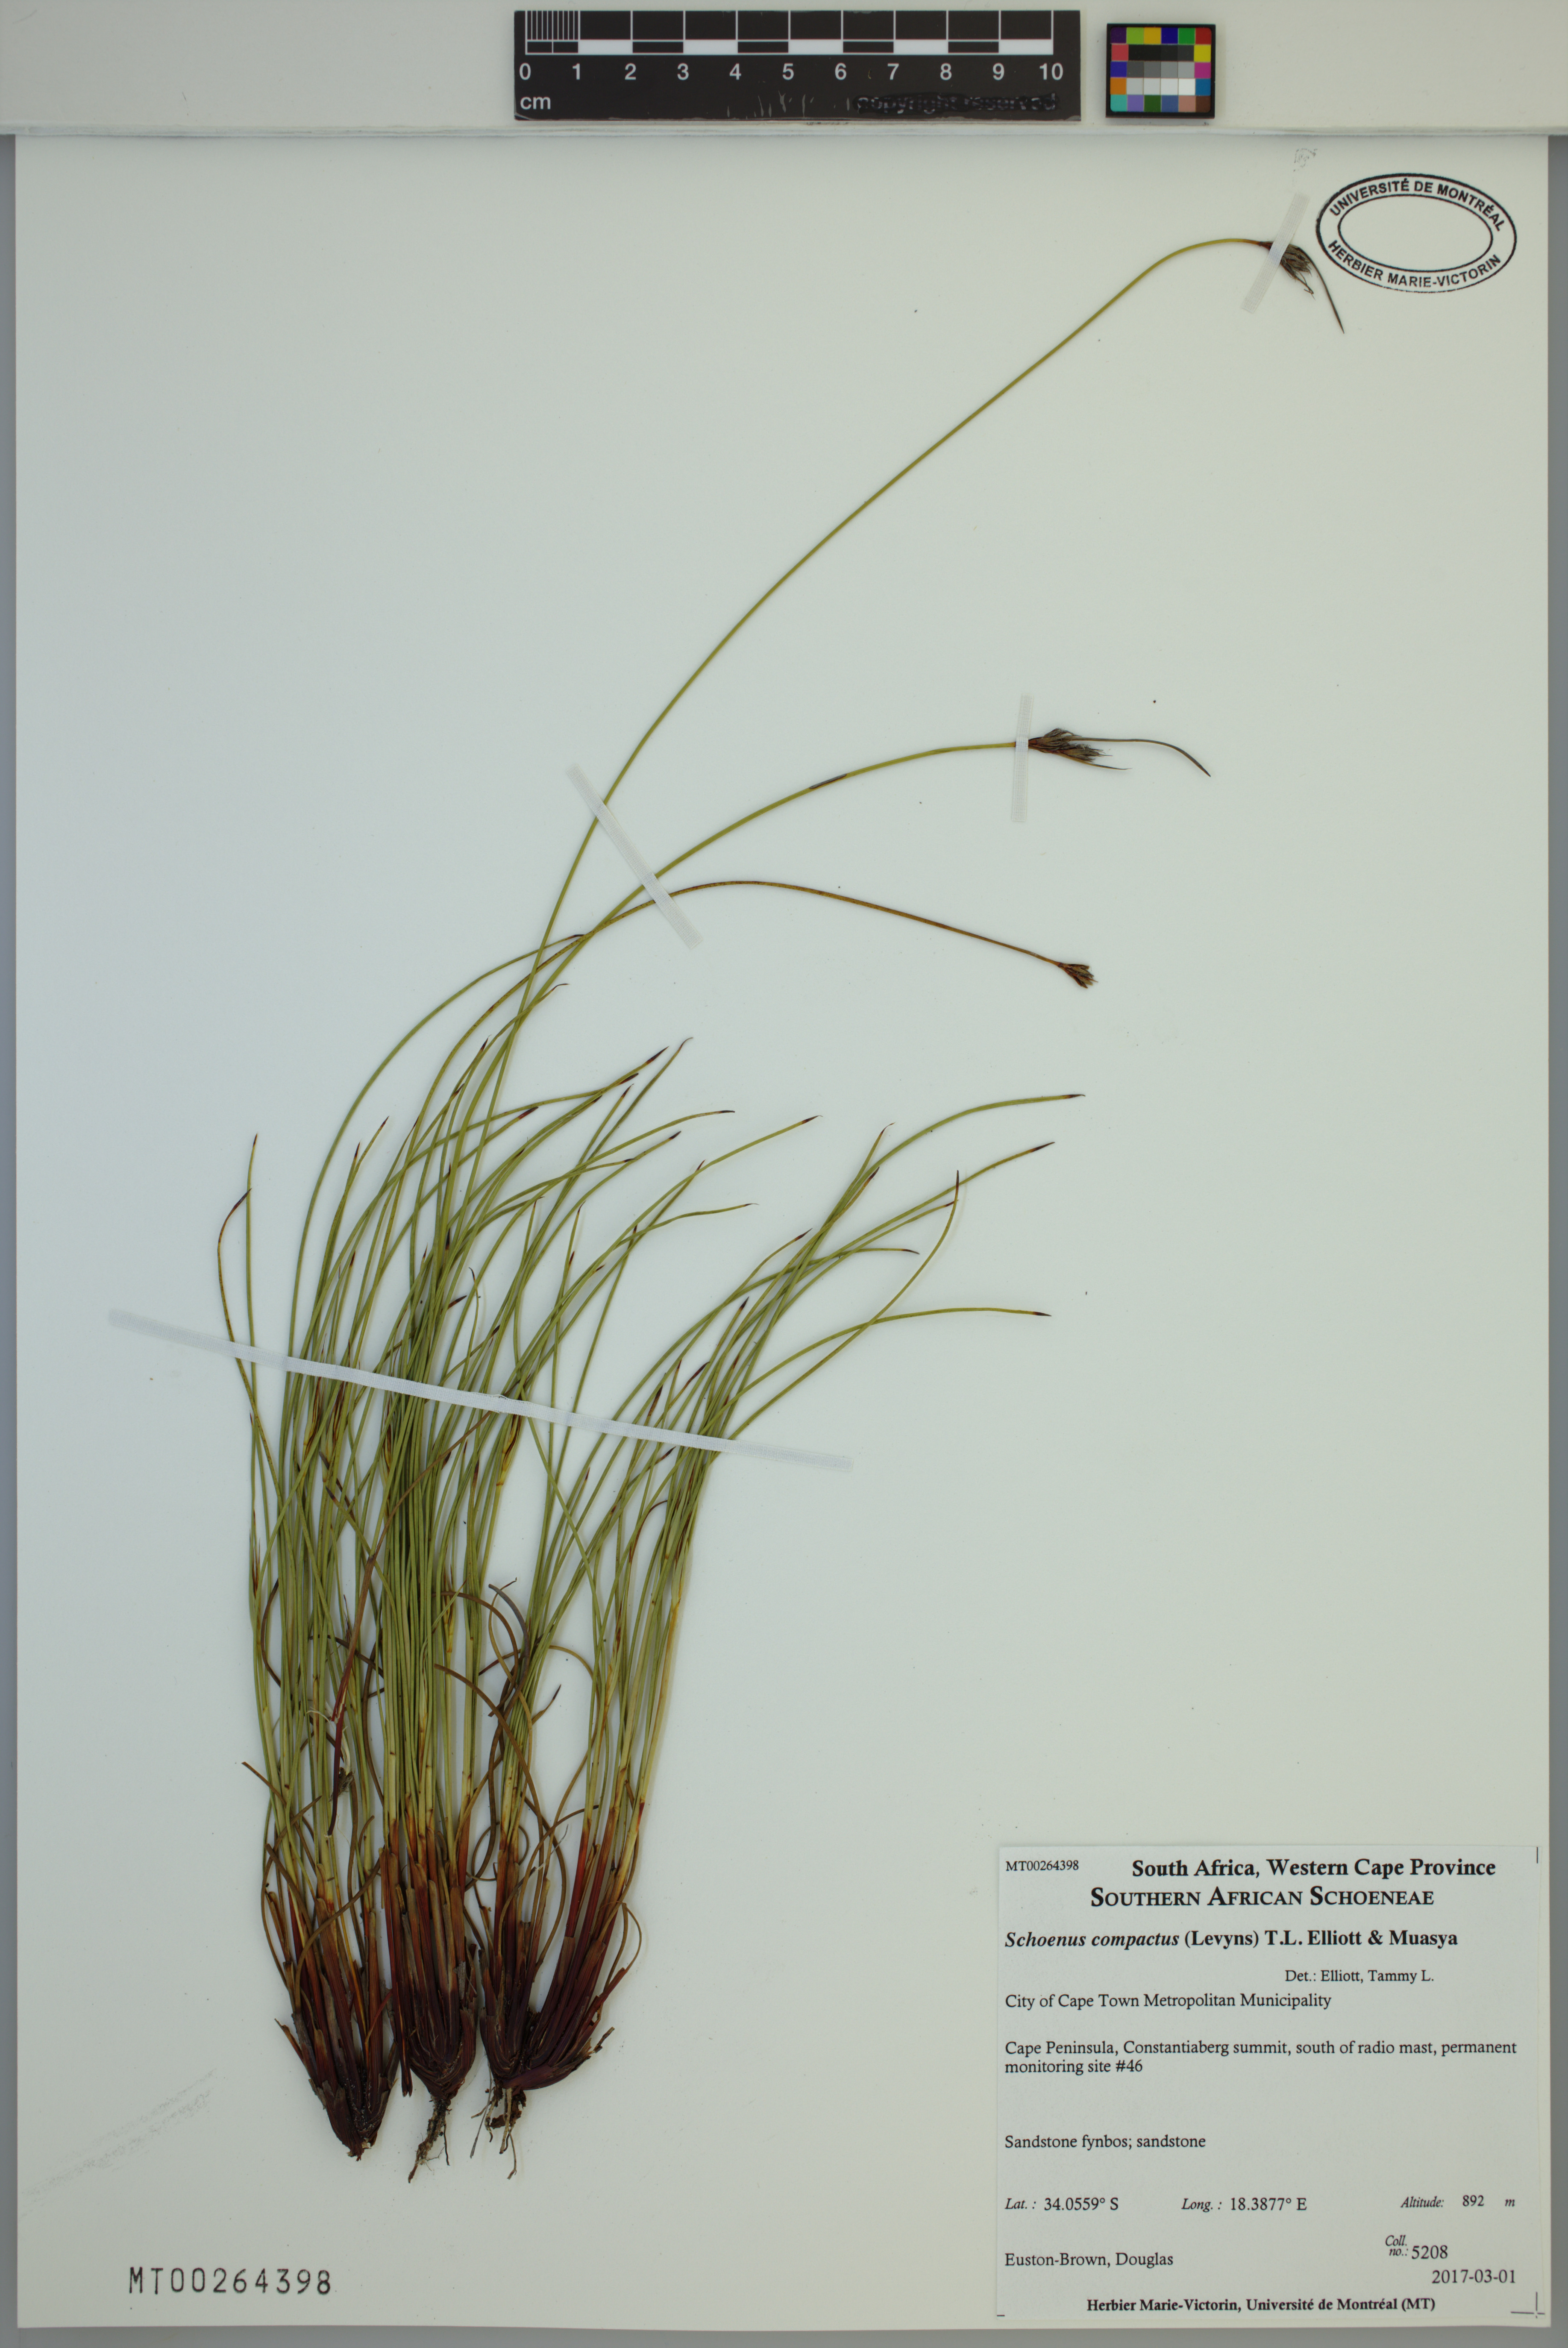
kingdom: Plantae
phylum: Tracheophyta
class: Liliopsida
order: Poales
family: Cyperaceae
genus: Schoenus
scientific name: Schoenus compactus
